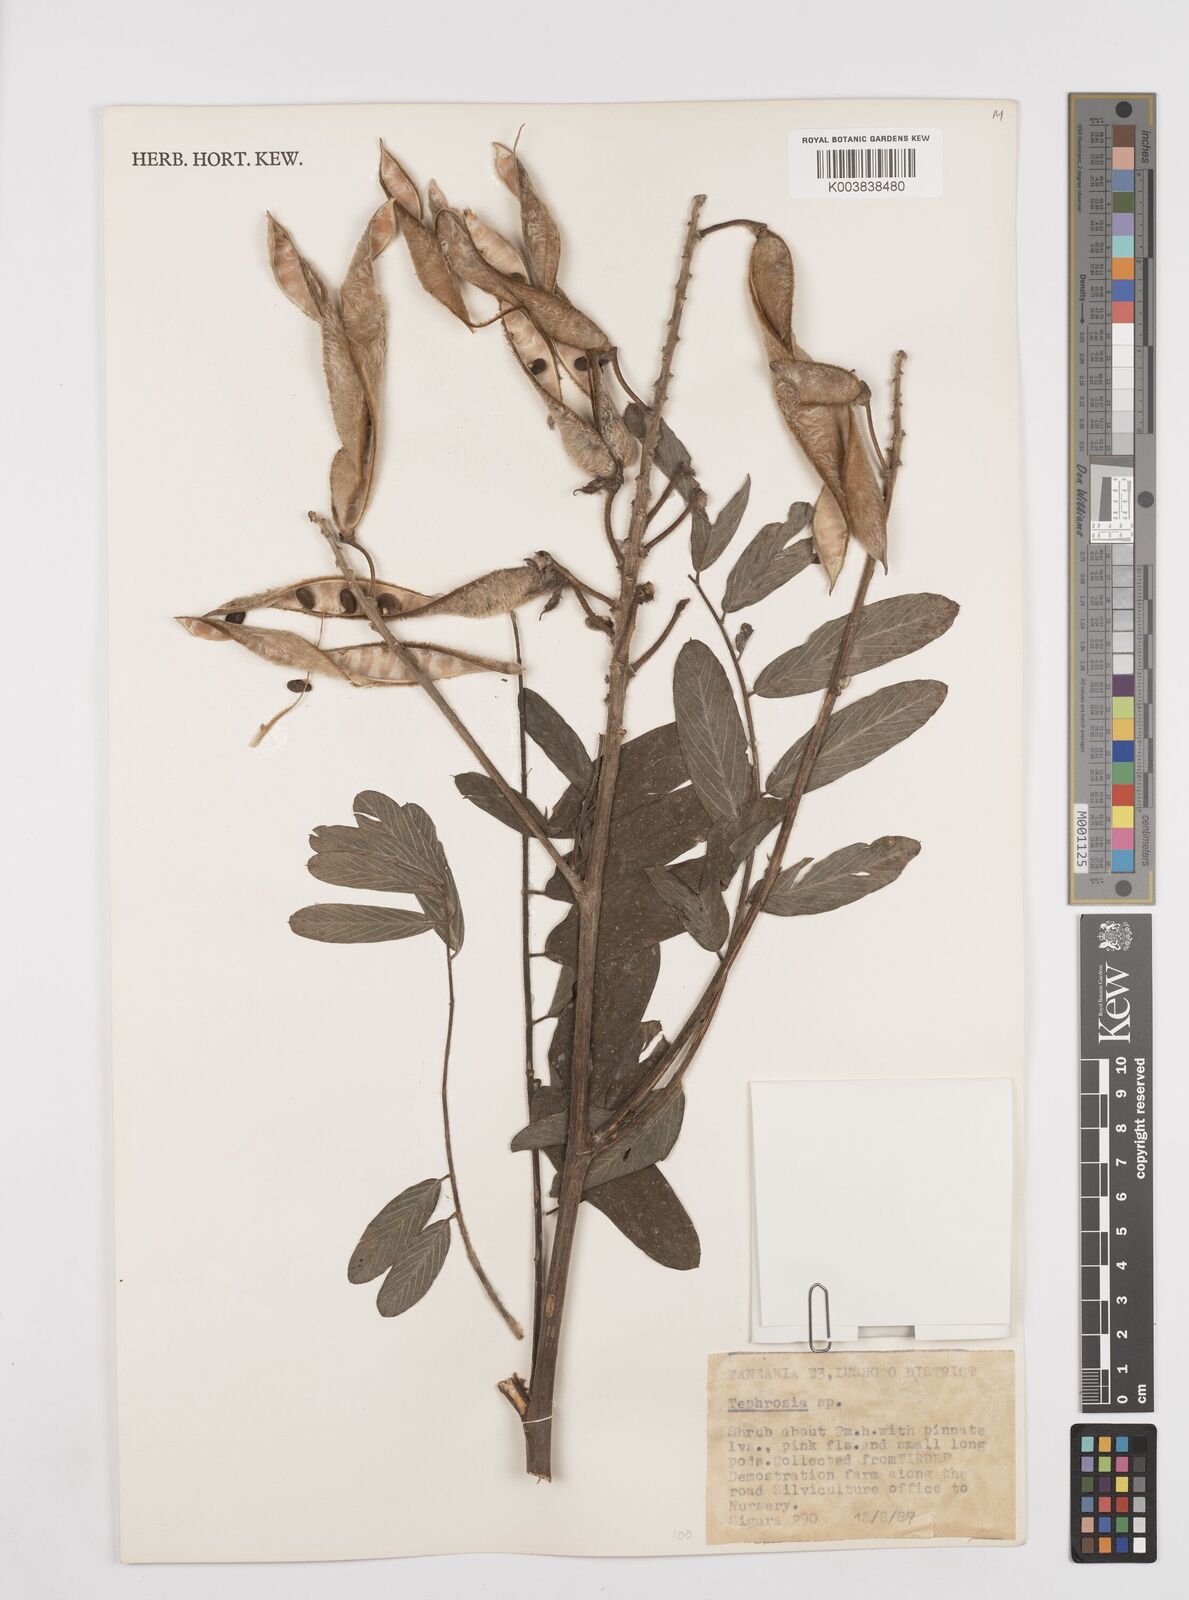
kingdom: Plantae
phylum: Tracheophyta
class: Magnoliopsida
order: Fabales
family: Fabaceae
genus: Tephrosia
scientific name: Tephrosia vogelii
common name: Vogel tephrosia
